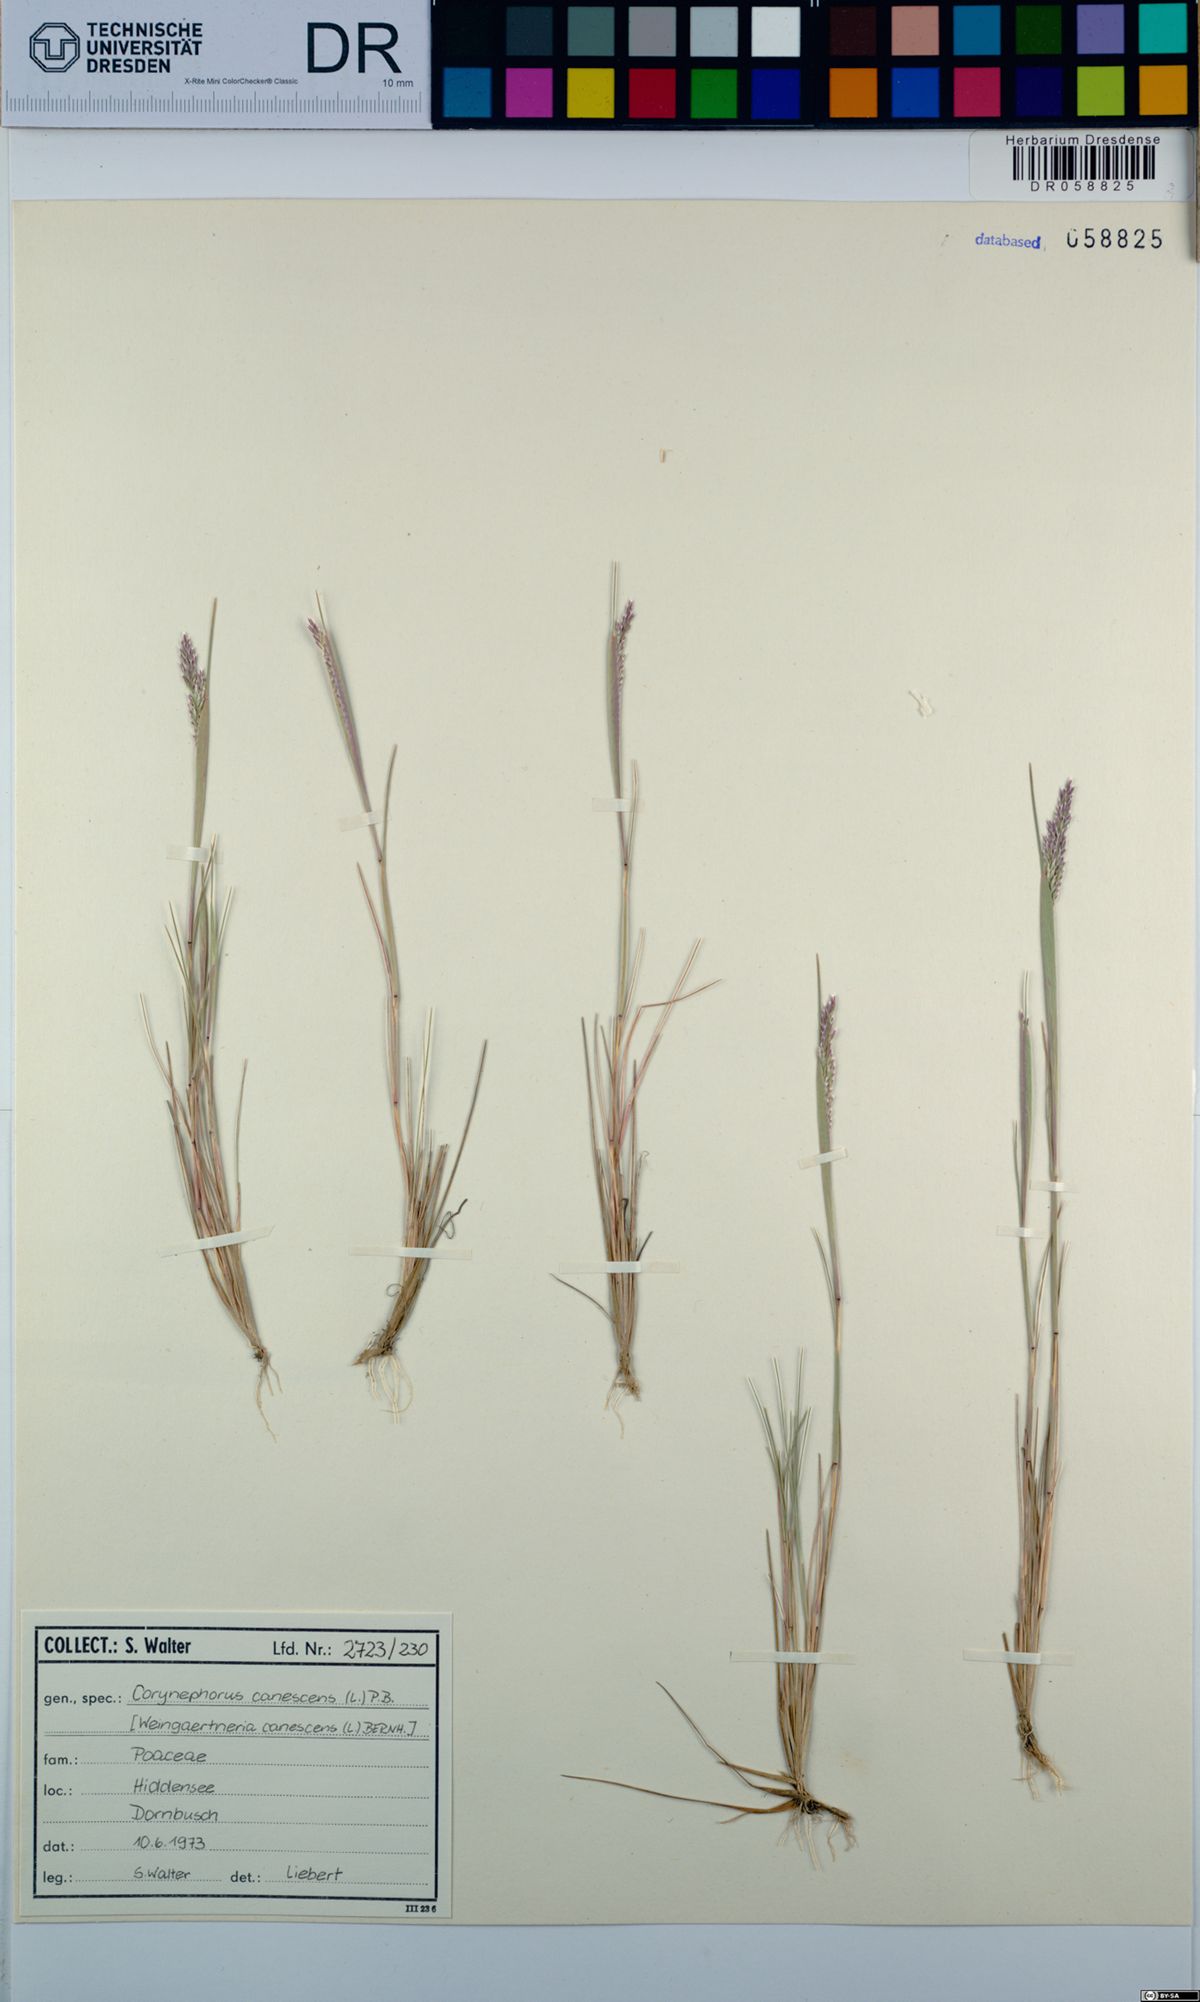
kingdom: Plantae
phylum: Tracheophyta
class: Liliopsida
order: Poales
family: Poaceae
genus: Corynephorus
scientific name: Corynephorus canescens
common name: Grey hair-grass
